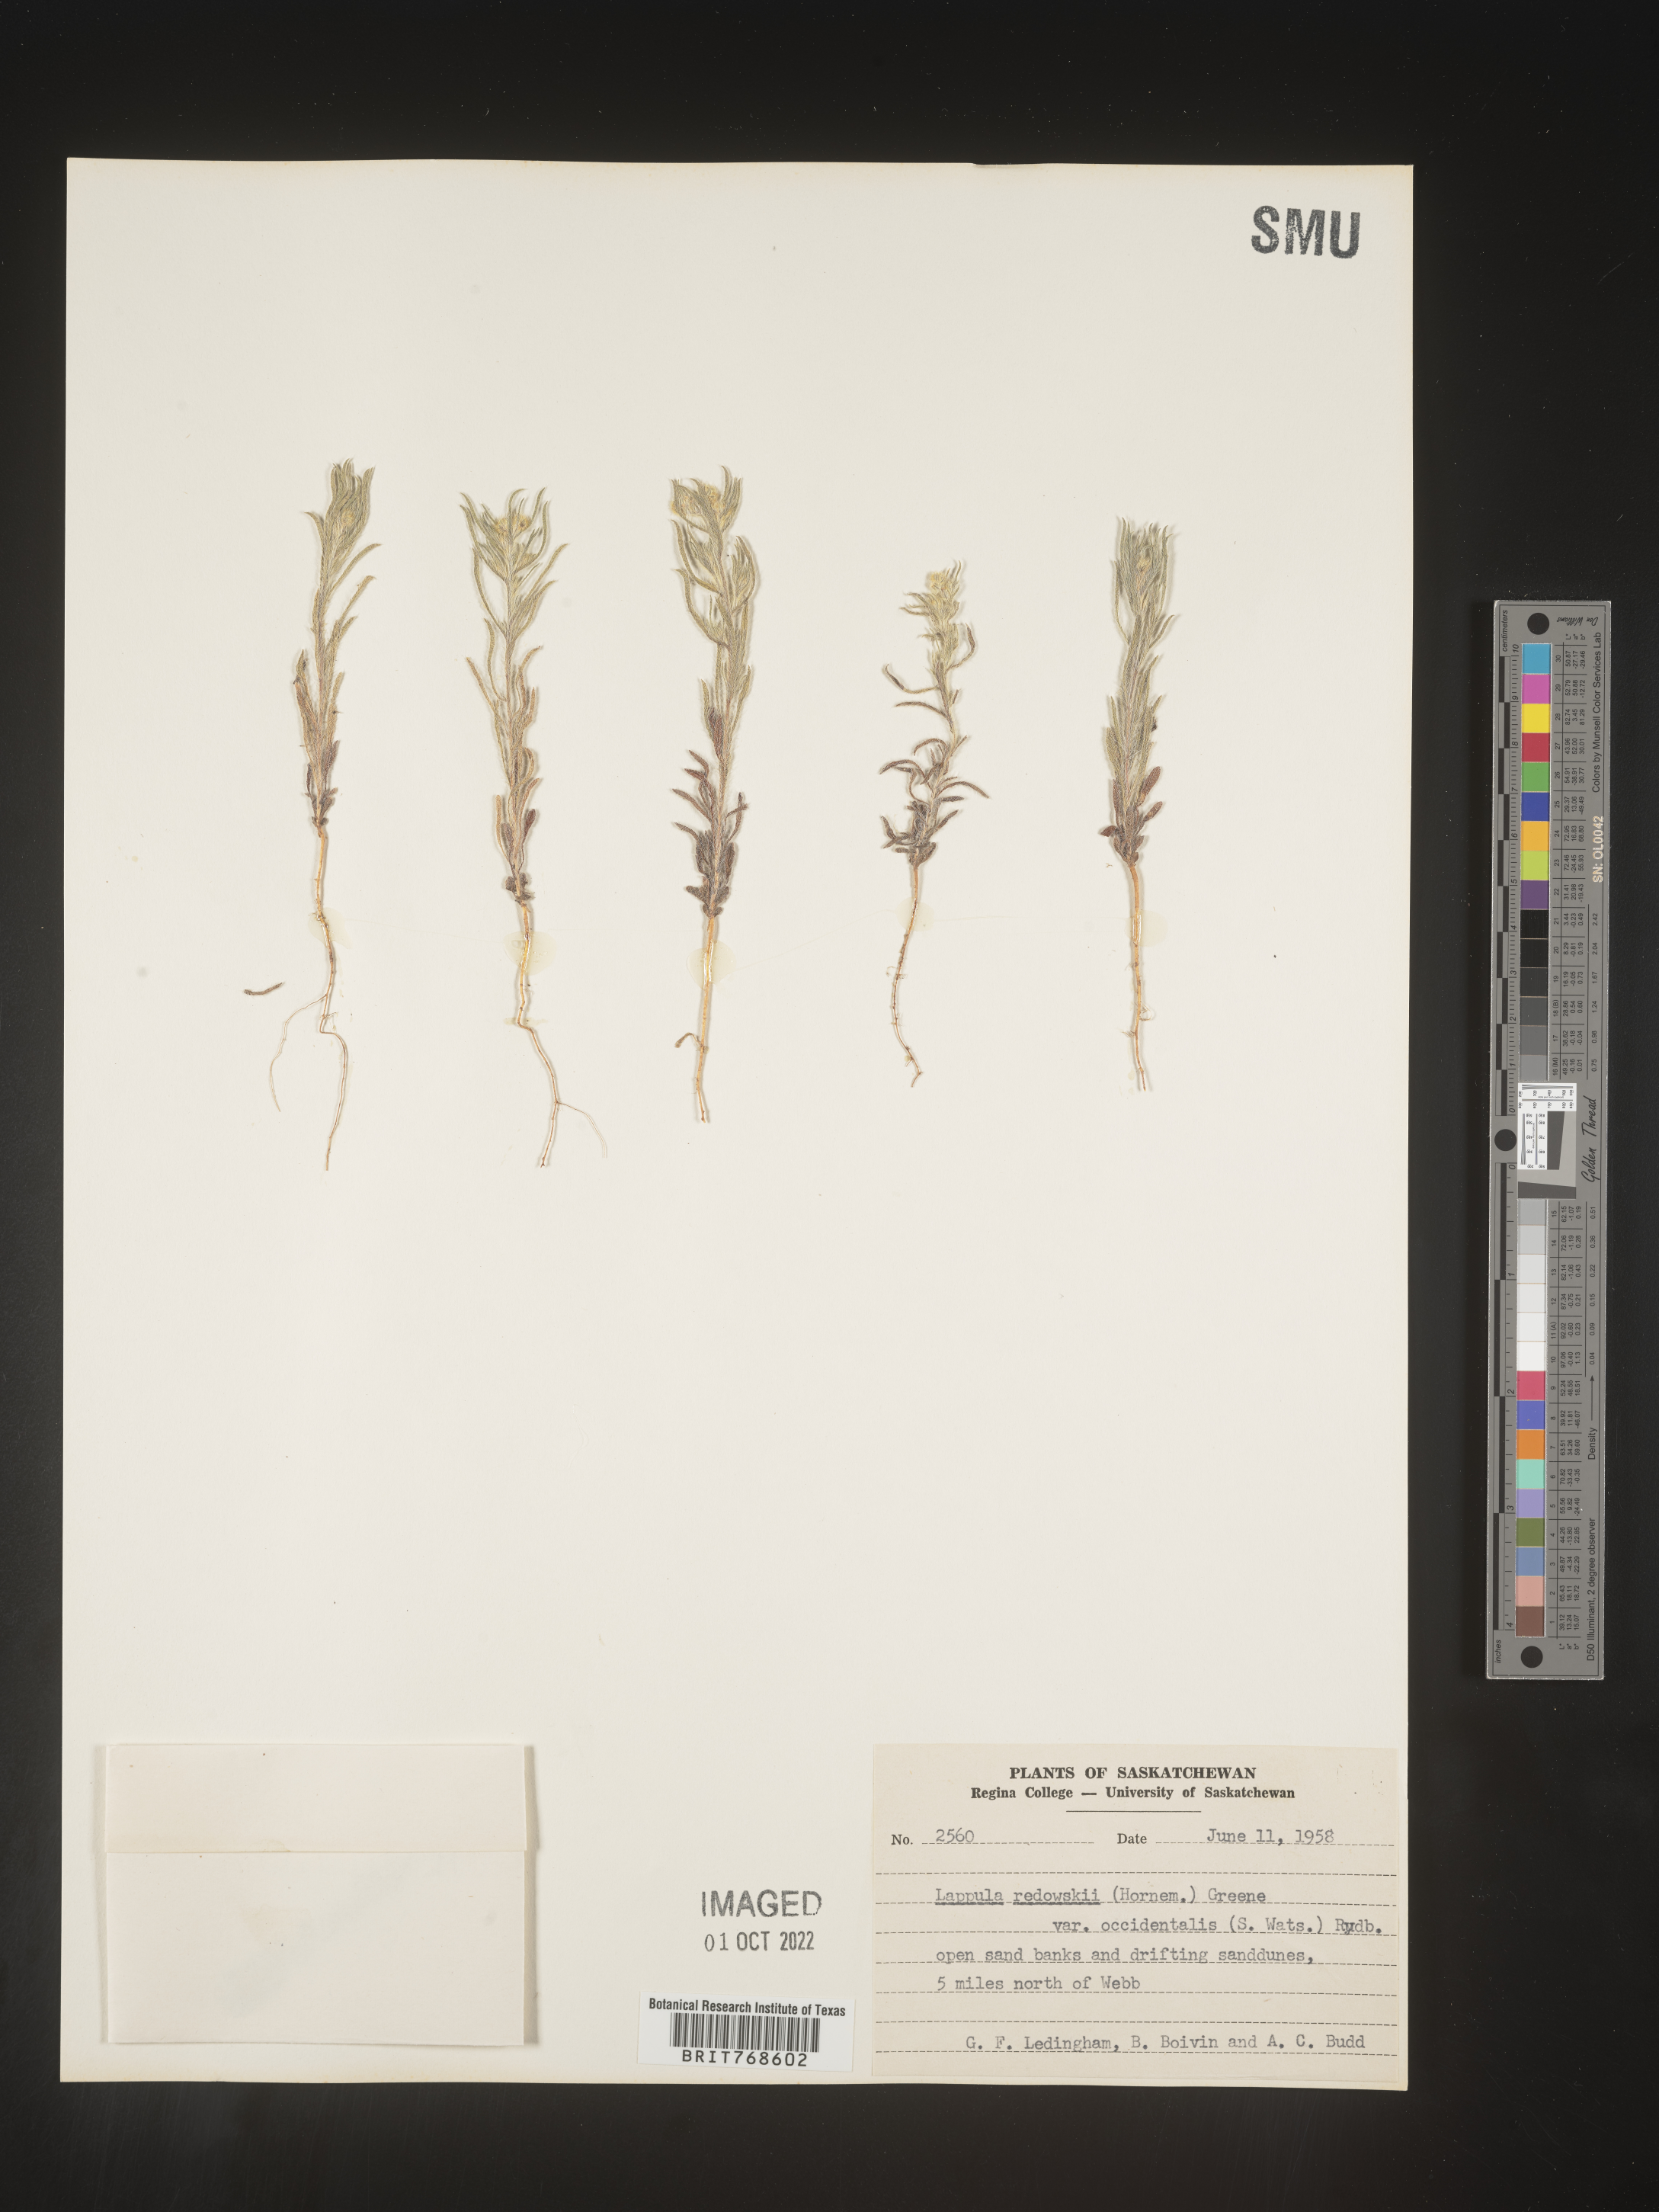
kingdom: Plantae
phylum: Tracheophyta
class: Magnoliopsida
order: Boraginales
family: Boraginaceae
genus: Lappula
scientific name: Lappula redowskii
